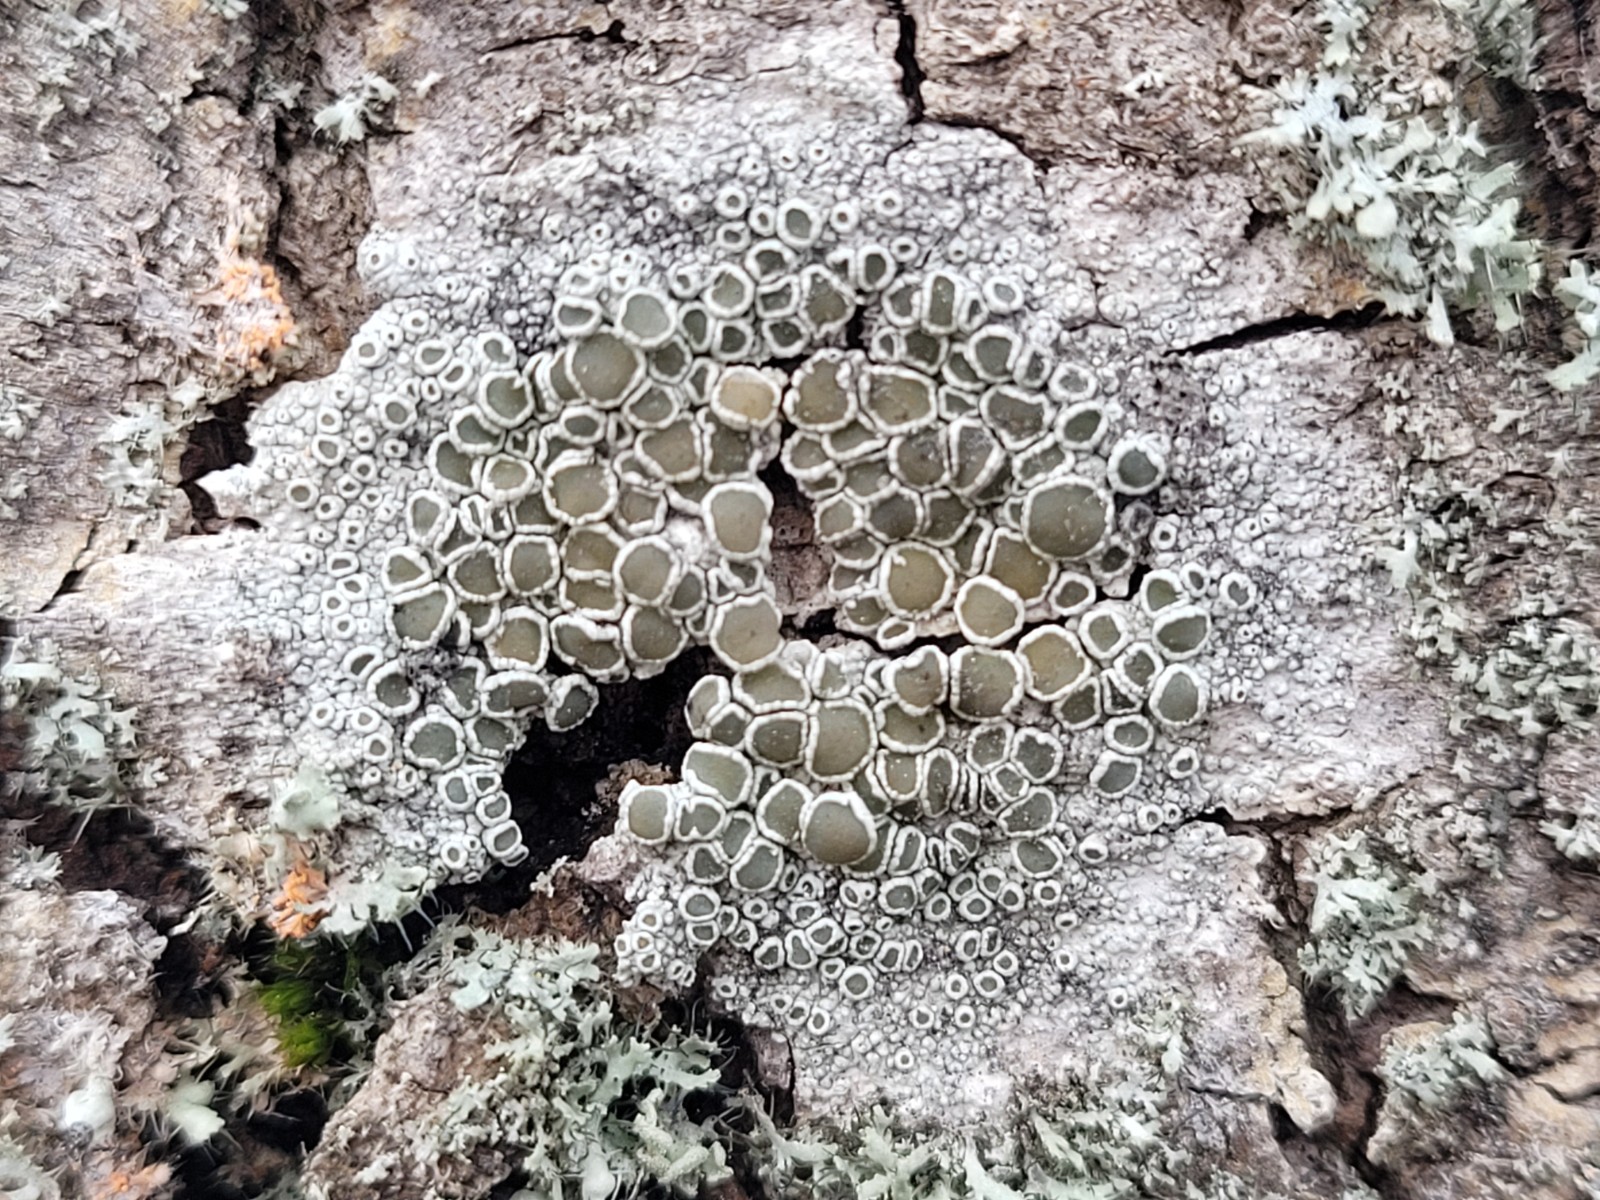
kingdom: Fungi
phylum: Ascomycota
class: Lecanoromycetes
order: Lecanorales
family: Lecanoraceae
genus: Lecanora
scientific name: Lecanora chlarotera
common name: brun kantskivelav
